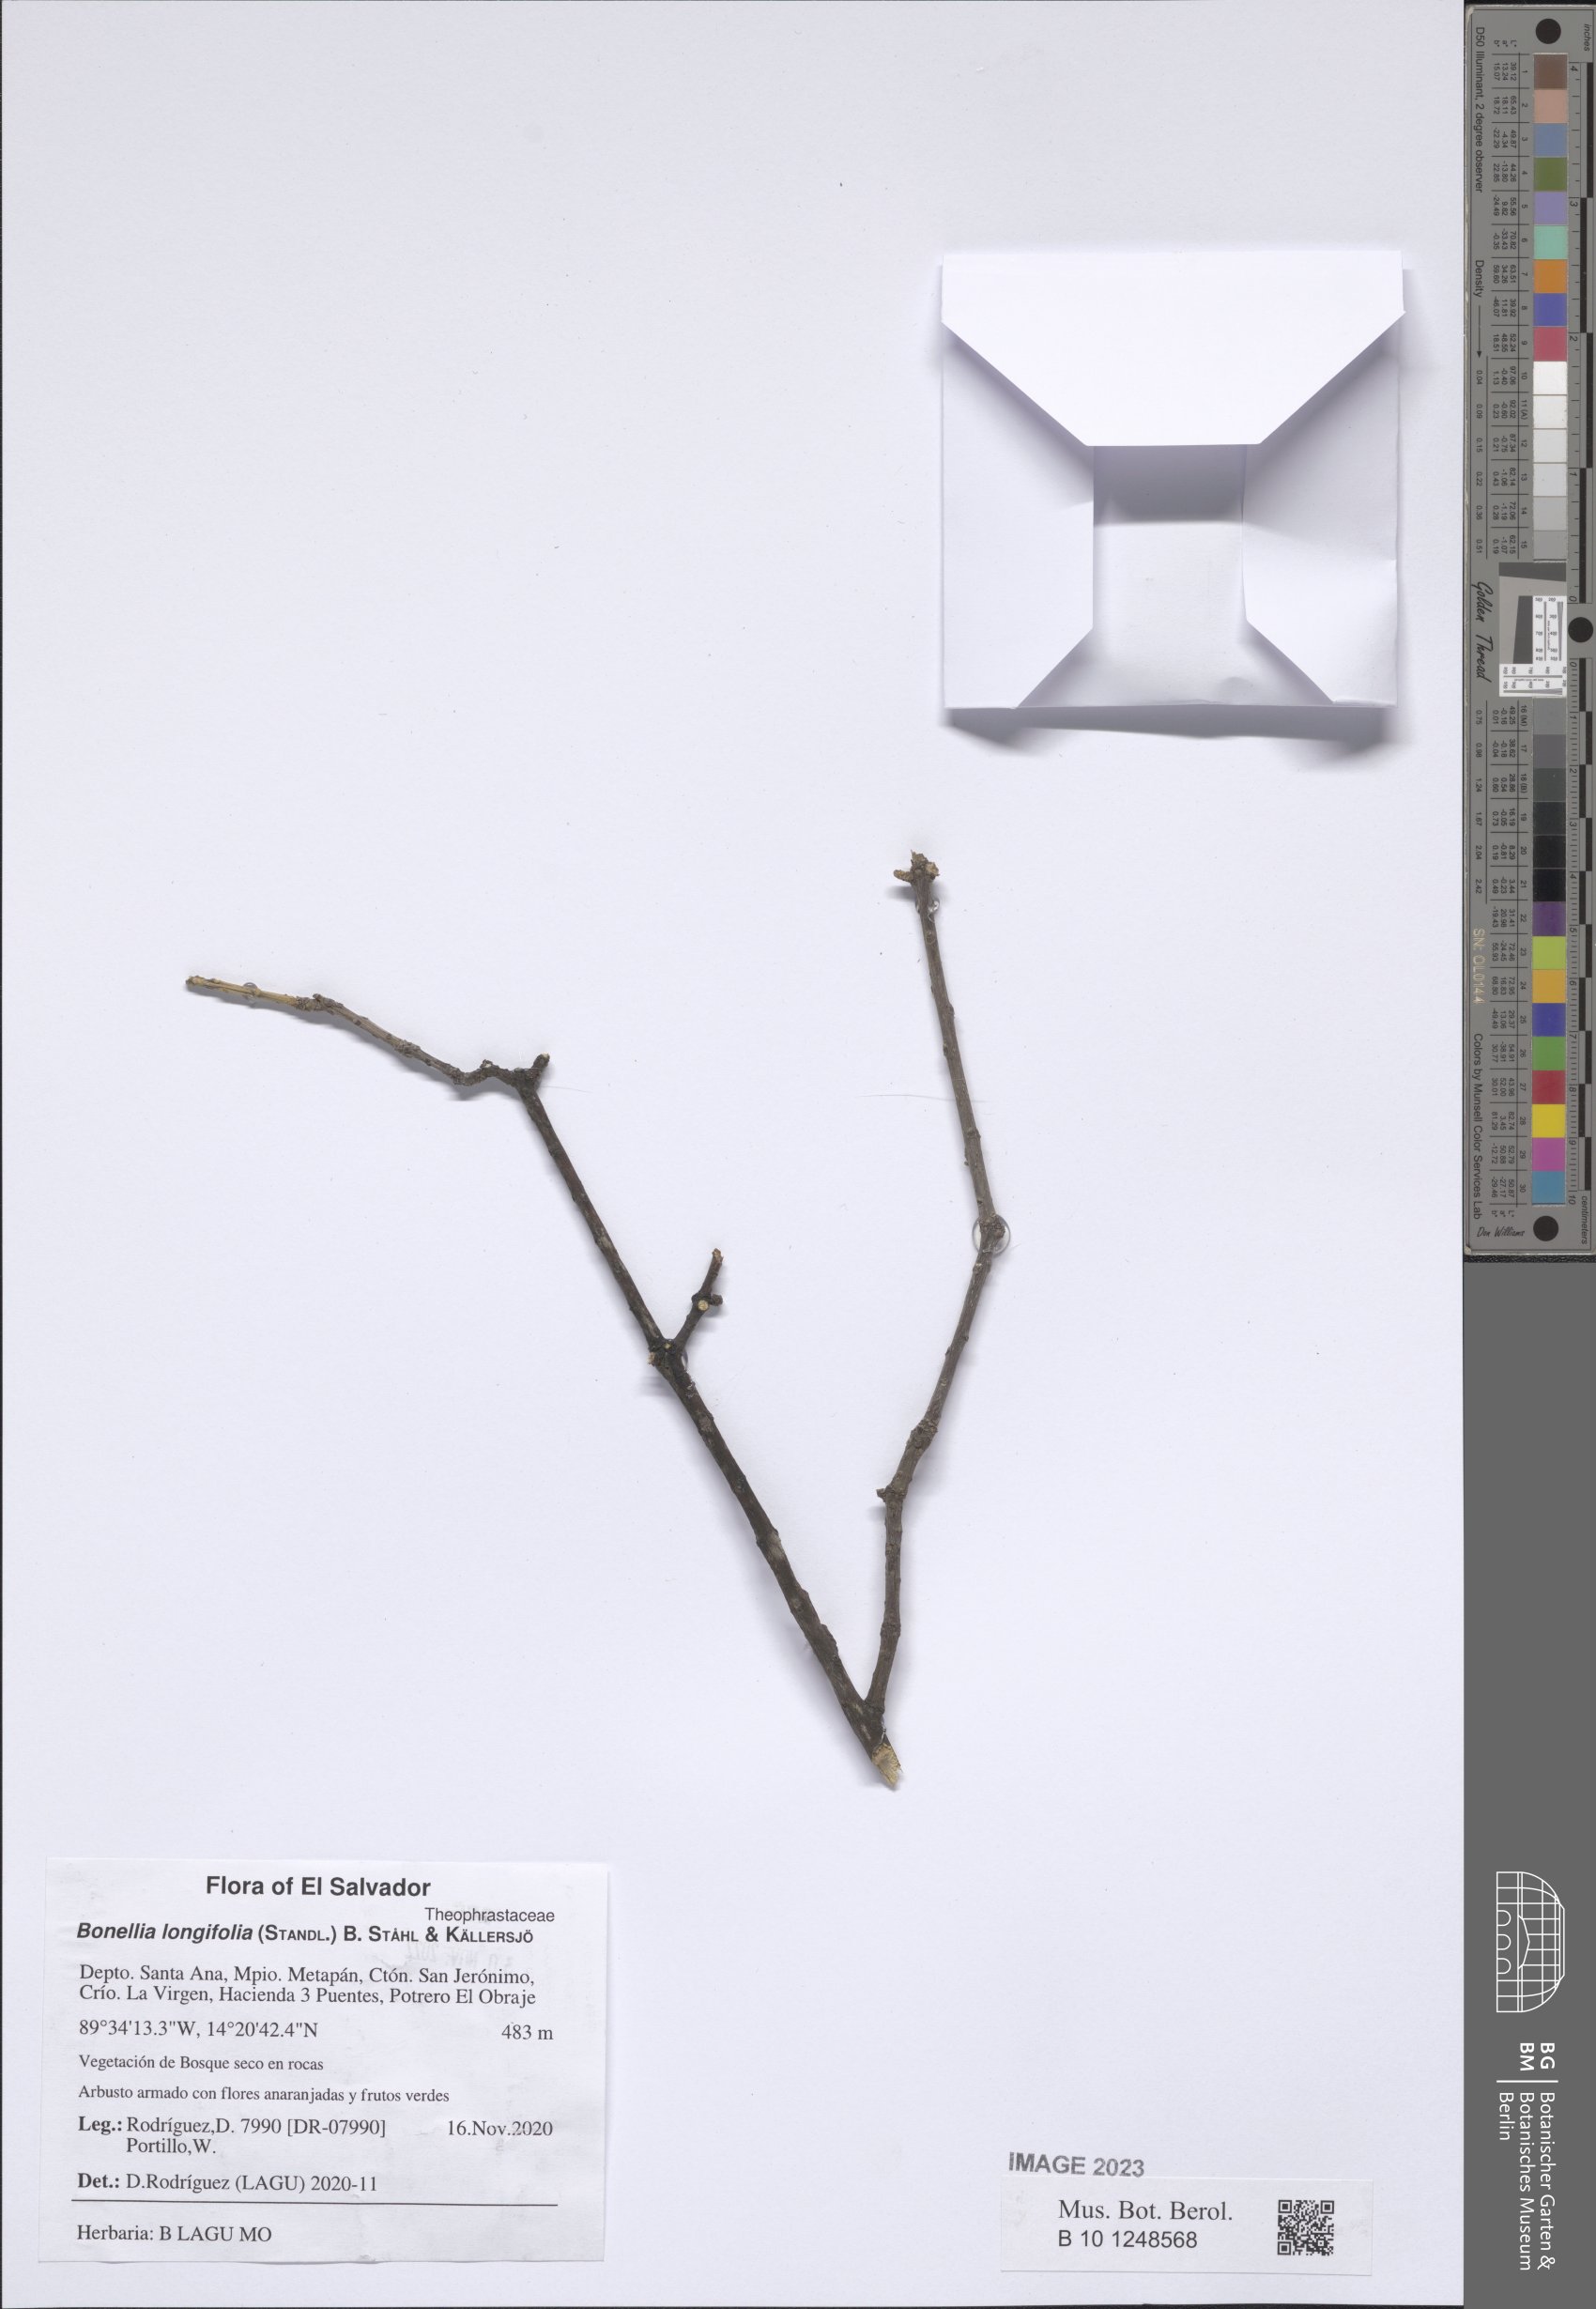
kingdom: Plantae
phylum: Tracheophyta
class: Magnoliopsida
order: Ericales
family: Primulaceae
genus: Bonellia
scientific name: Bonellia longifolia
